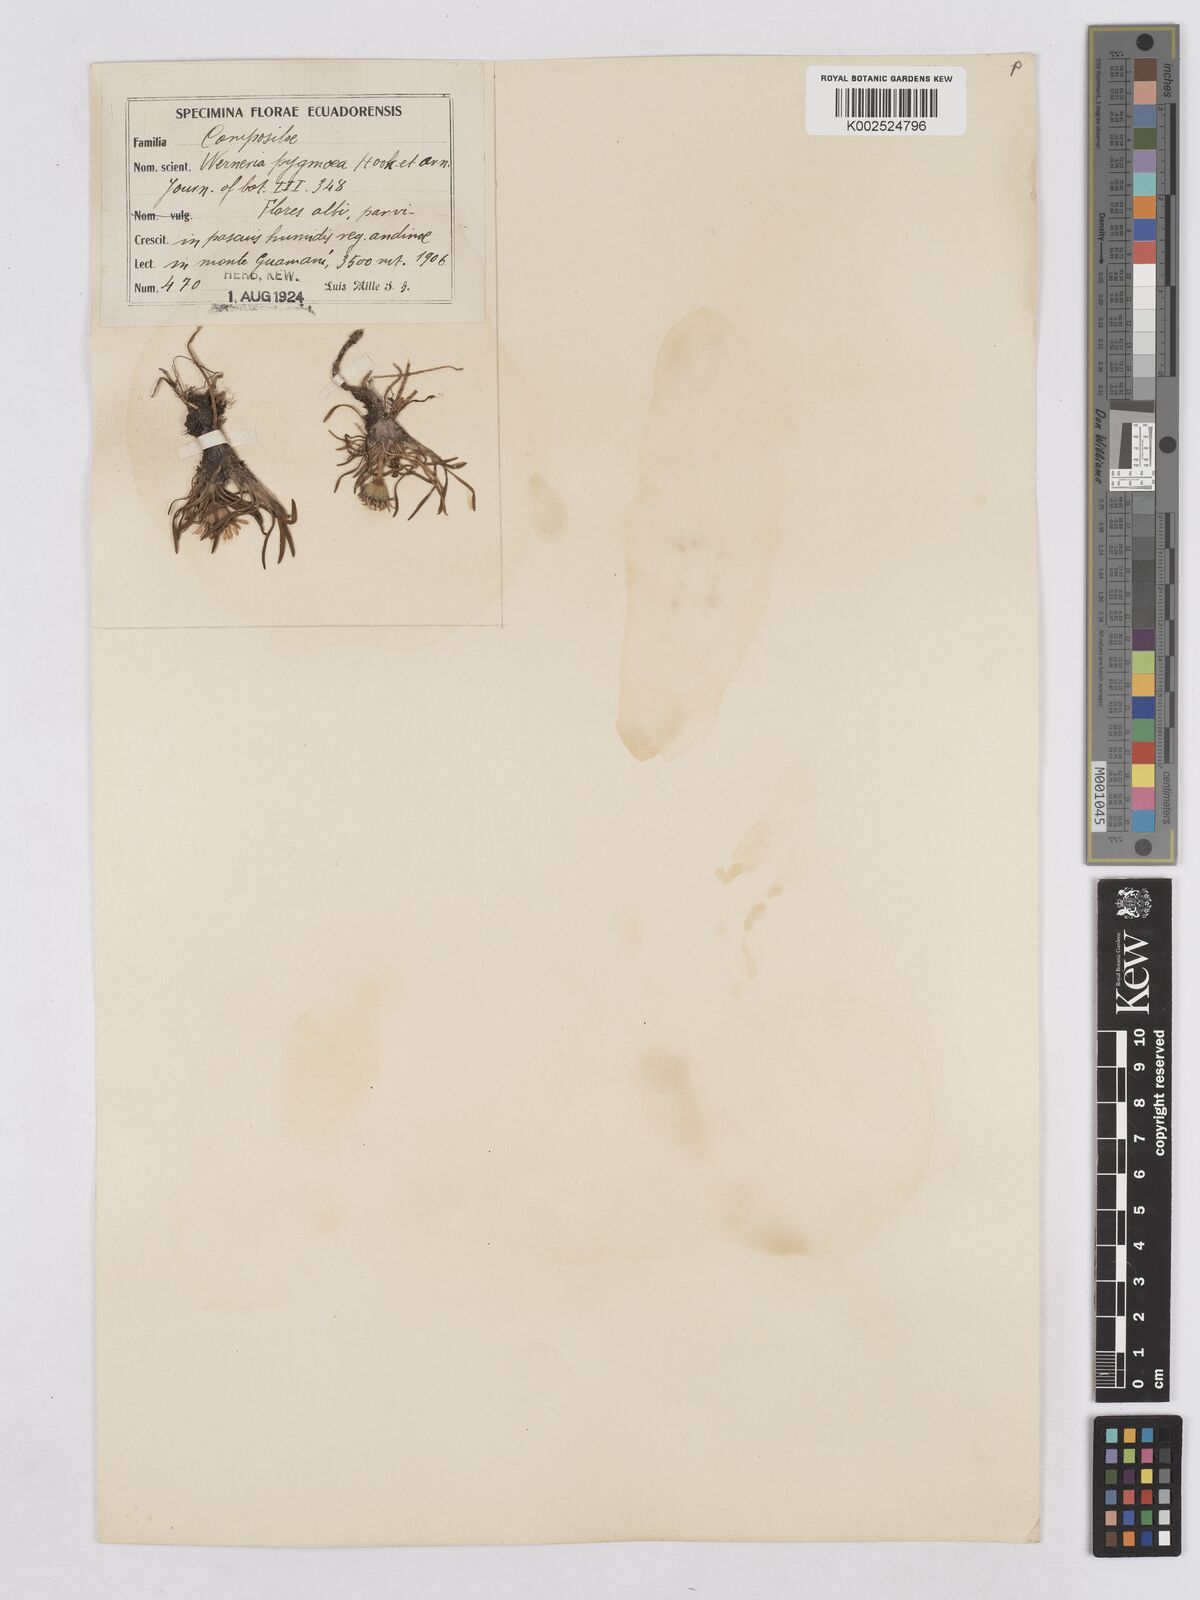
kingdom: Plantae
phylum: Tracheophyta
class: Magnoliopsida
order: Asterales
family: Asteraceae
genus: Rockhausenia
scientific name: Rockhausenia pygmaea
